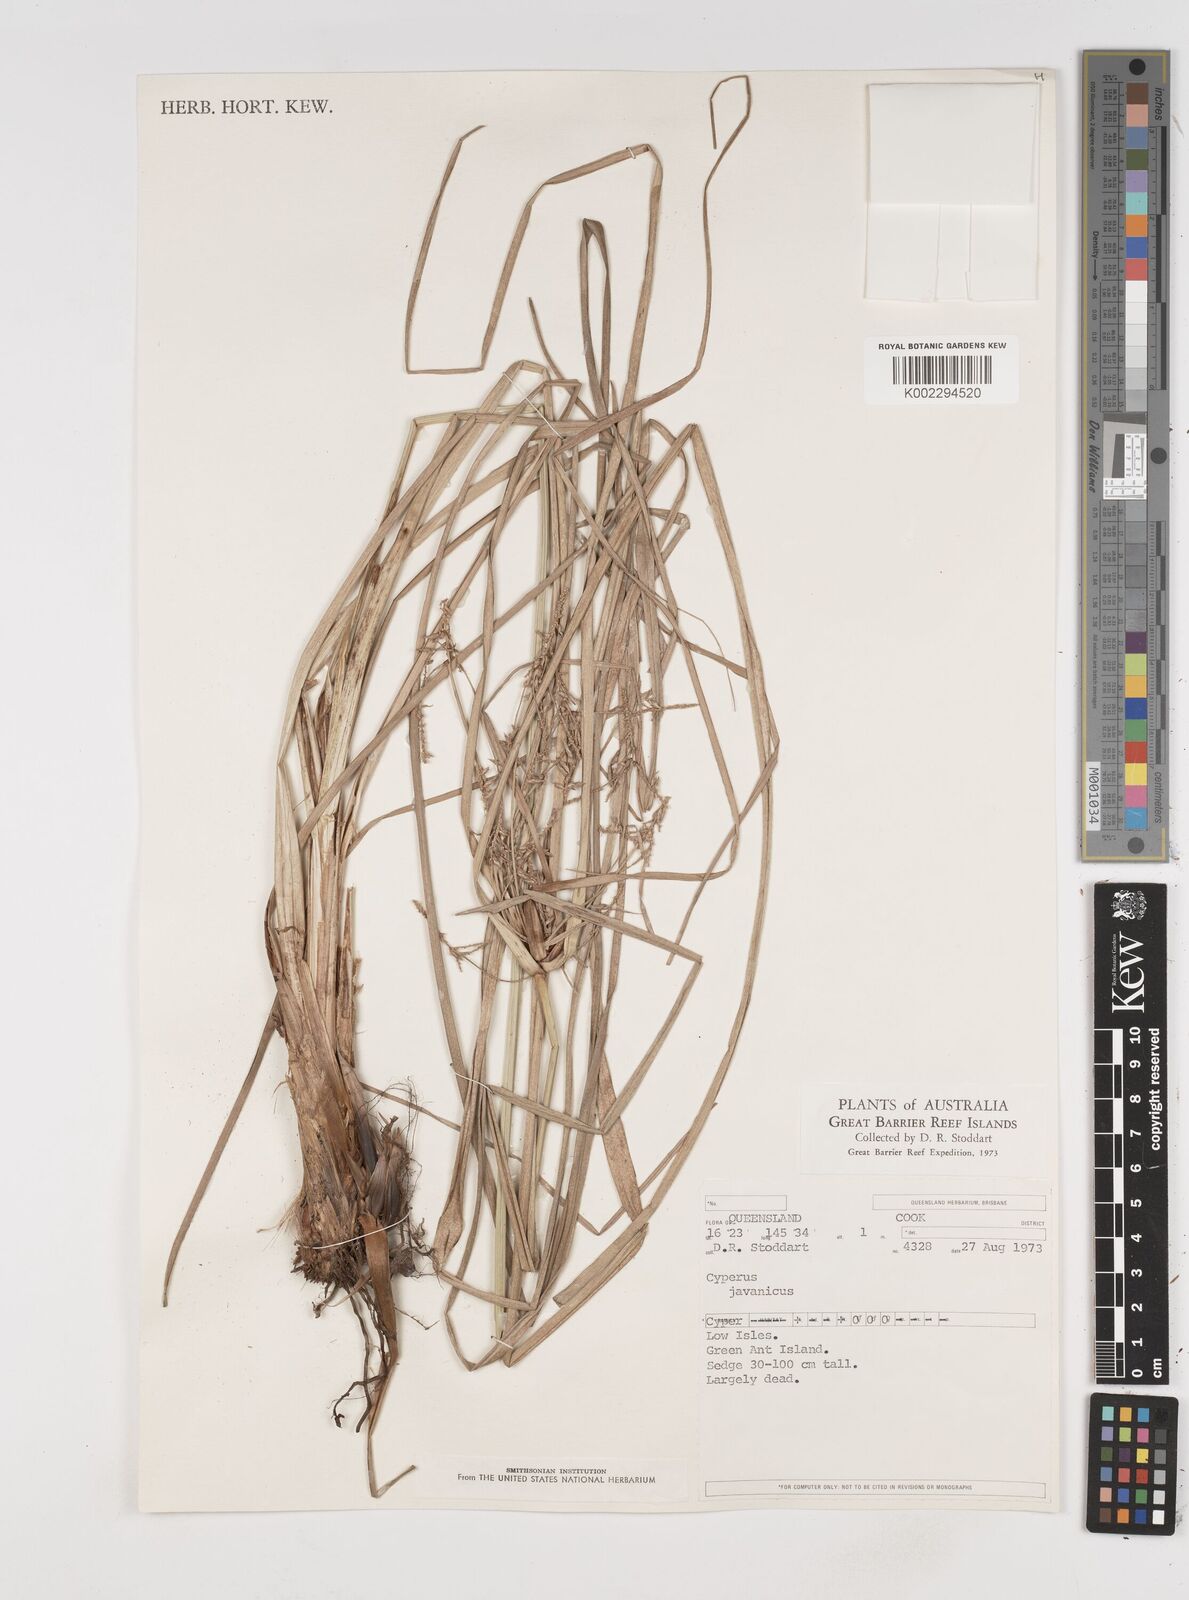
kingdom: Plantae
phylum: Tracheophyta
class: Liliopsida
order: Poales
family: Cyperaceae
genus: Cyperus
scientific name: Cyperus javanicus
